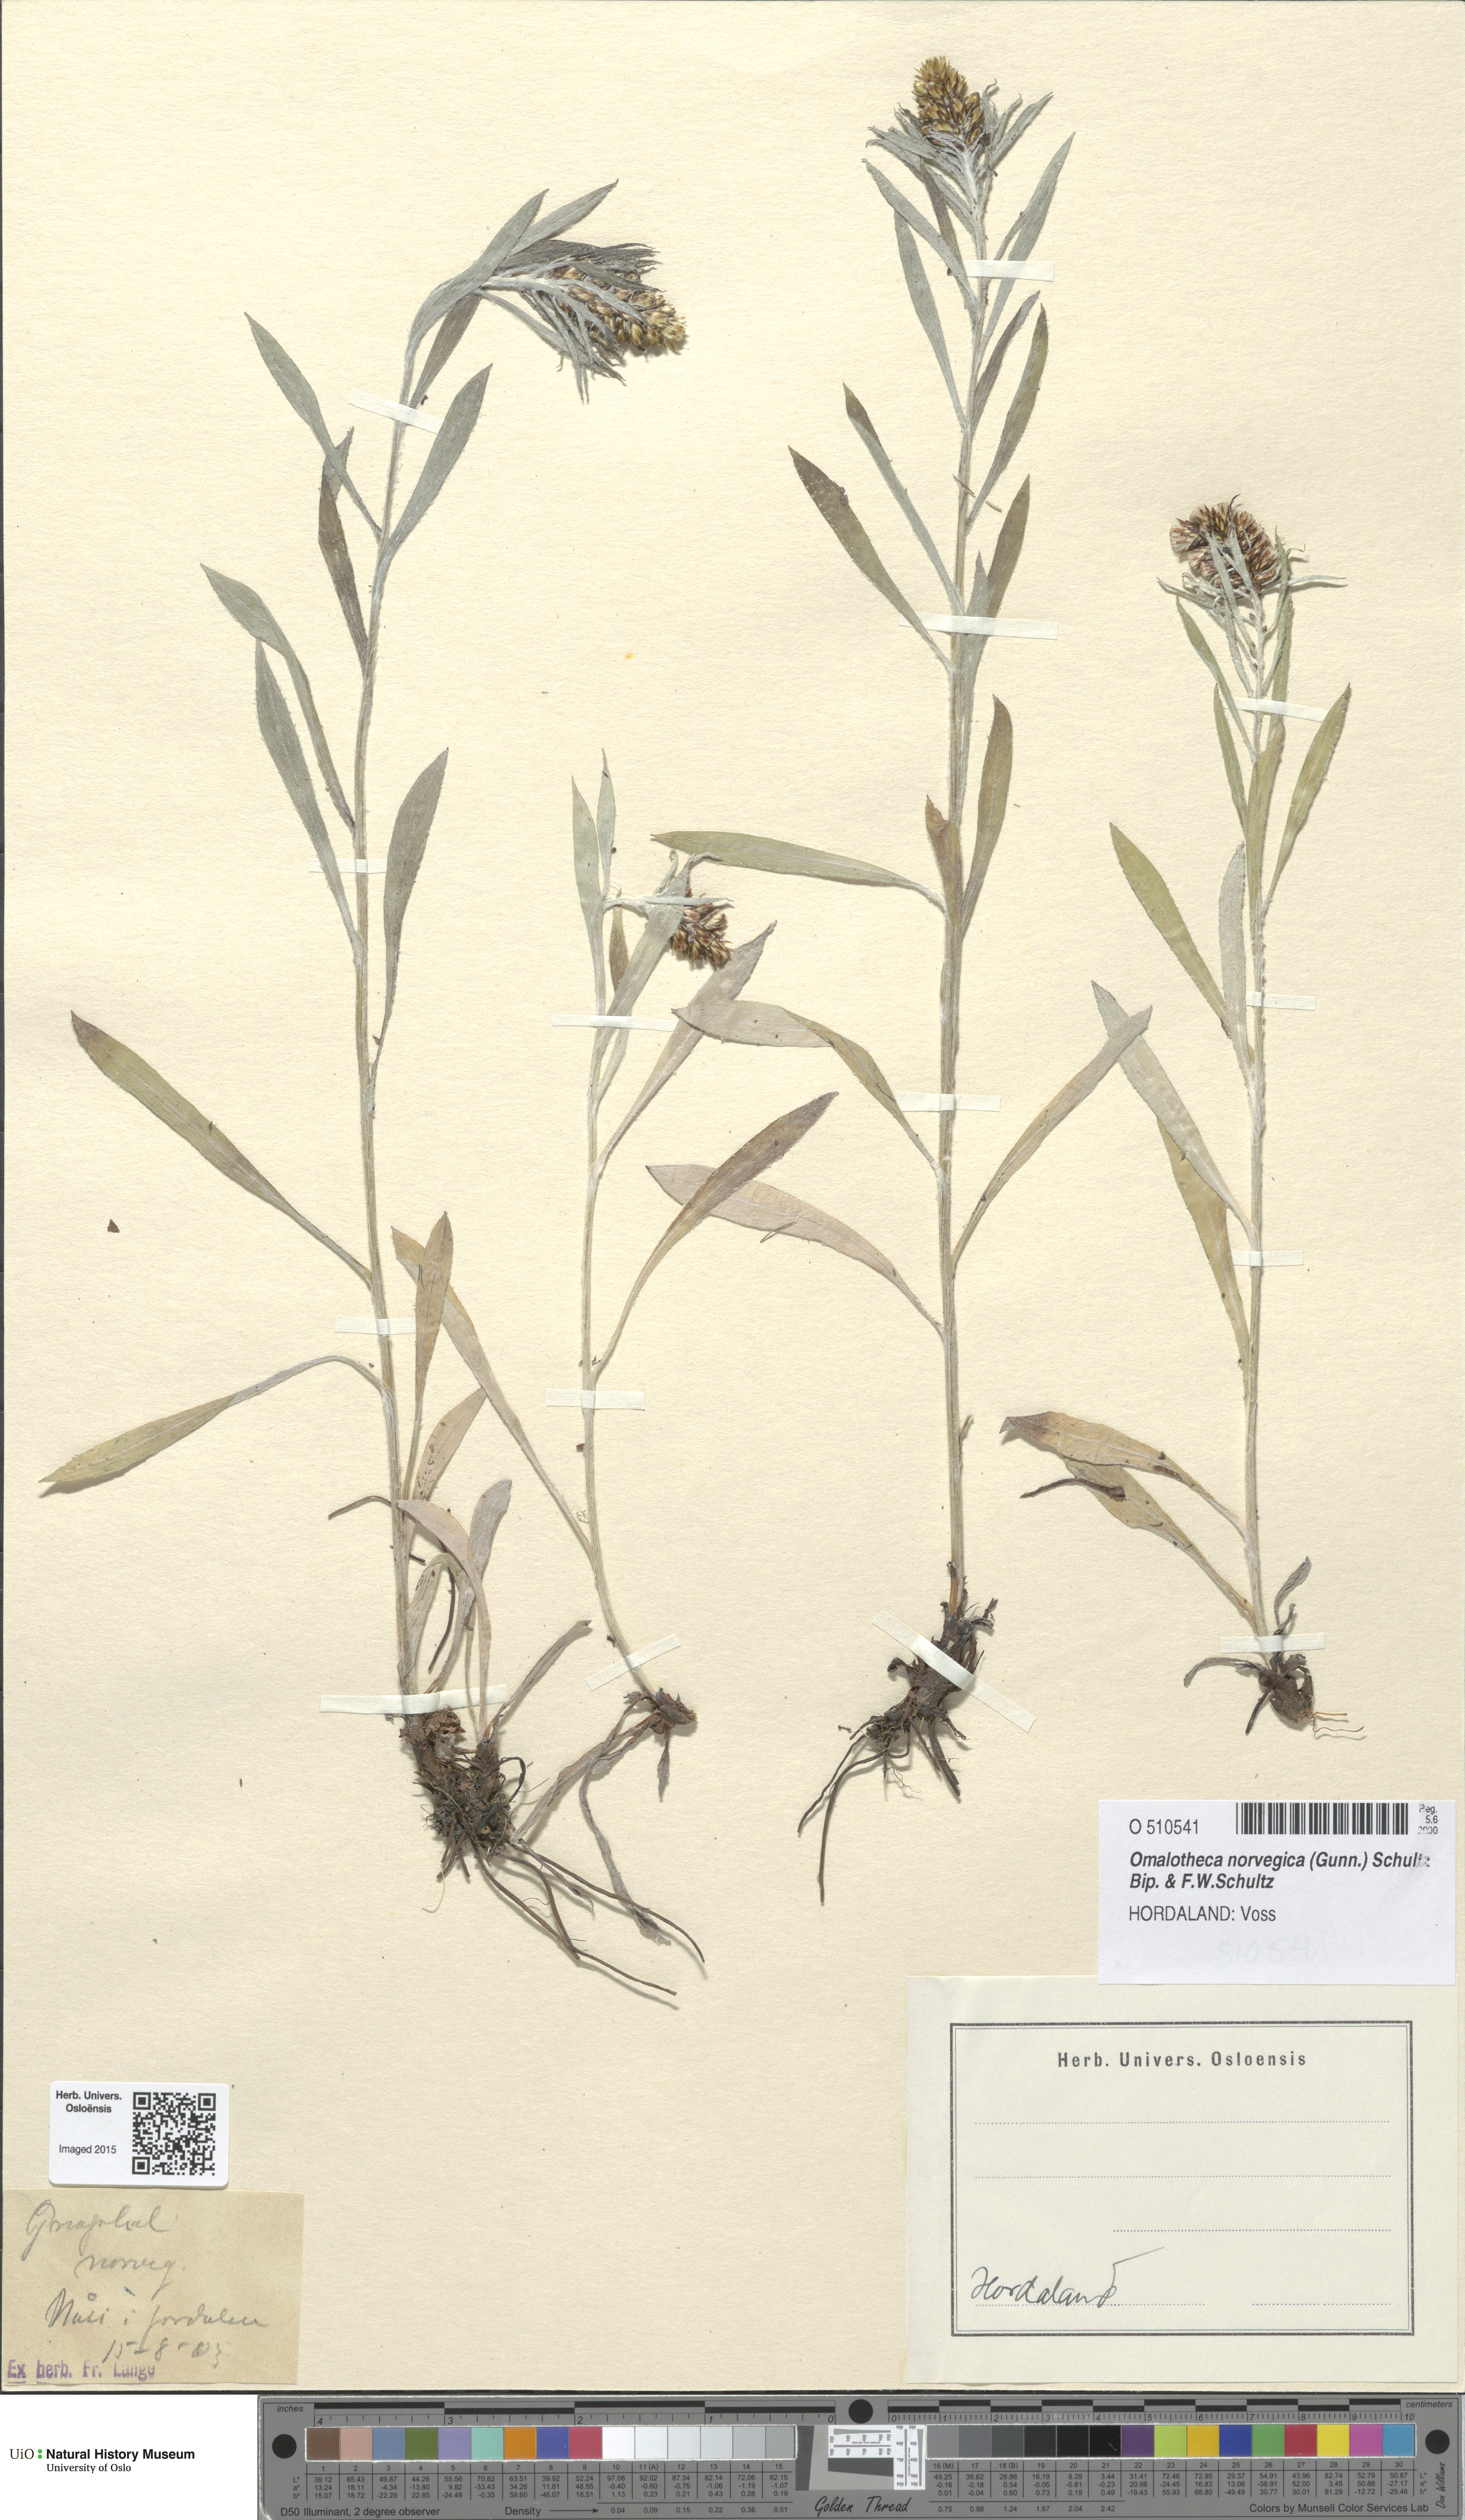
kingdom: Plantae
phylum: Tracheophyta
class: Magnoliopsida
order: Asterales
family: Asteraceae
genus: Omalotheca
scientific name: Omalotheca norvegica
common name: Norwegian arctic-cudweed
